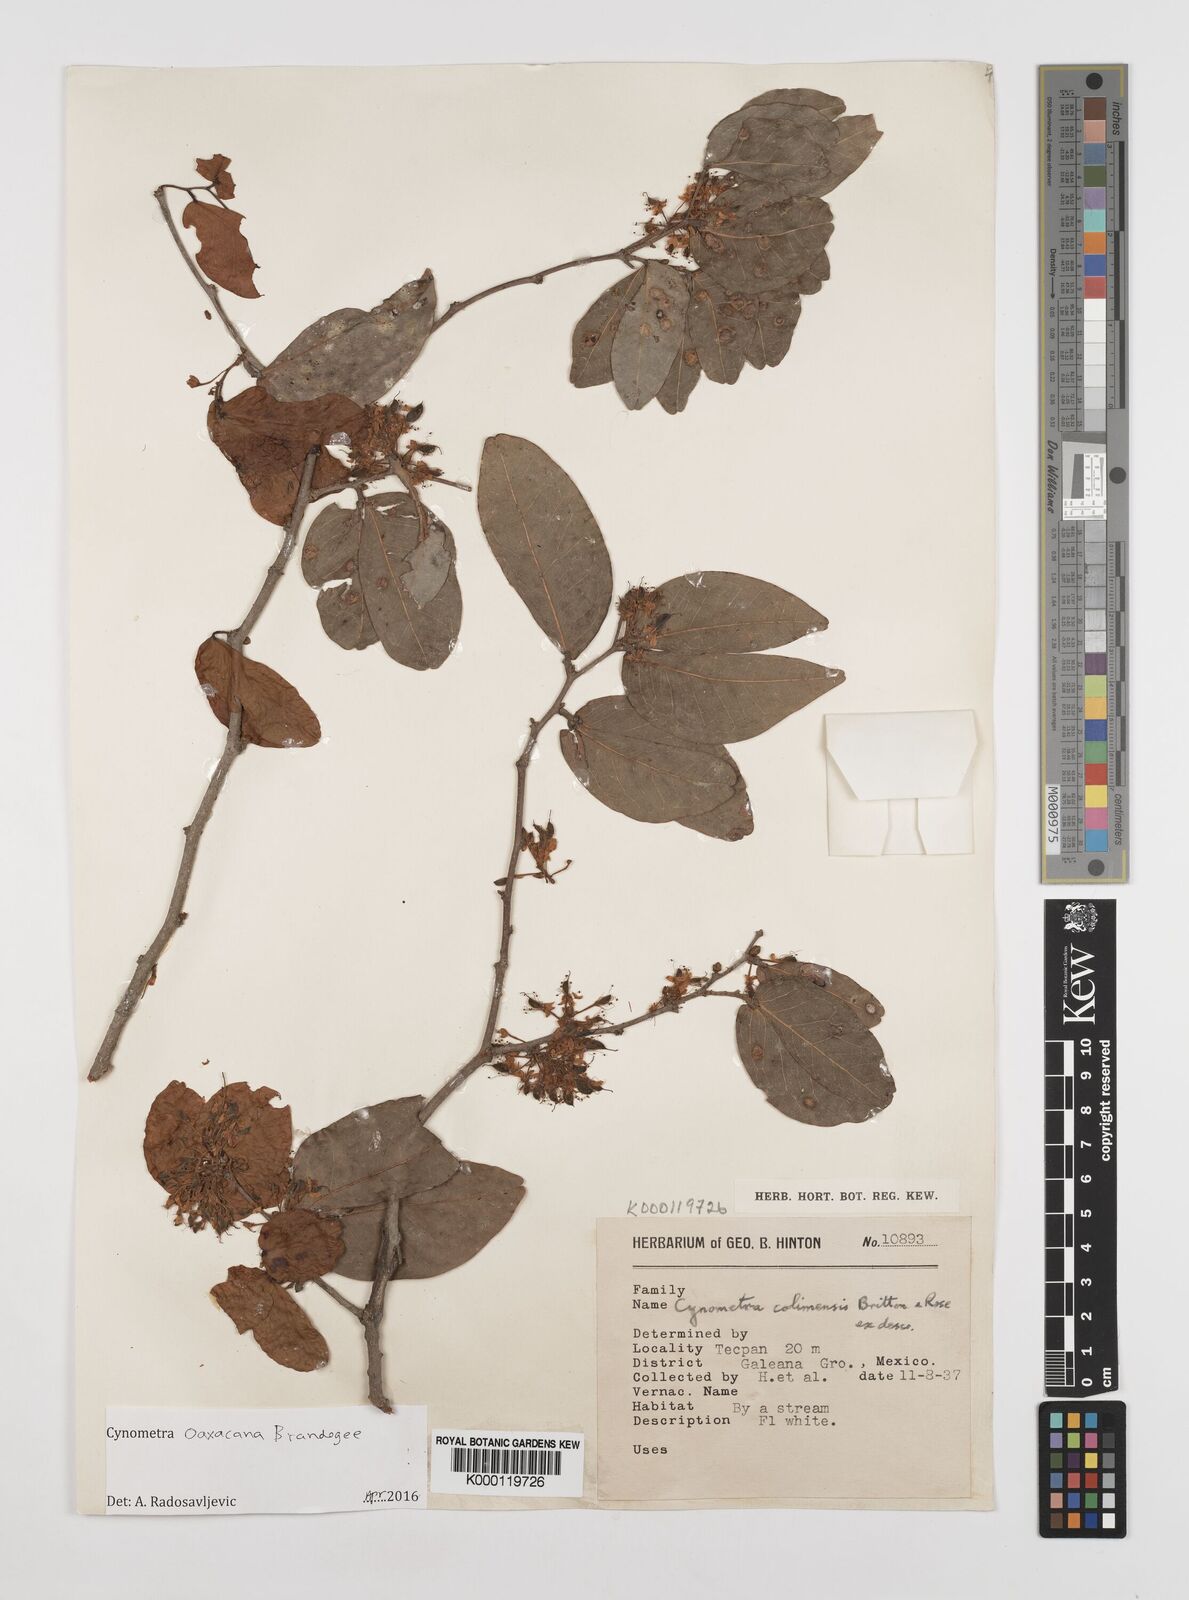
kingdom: Plantae
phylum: Tracheophyta
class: Magnoliopsida
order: Fabales
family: Fabaceae
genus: Cynometra
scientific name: Cynometra oaxacana
